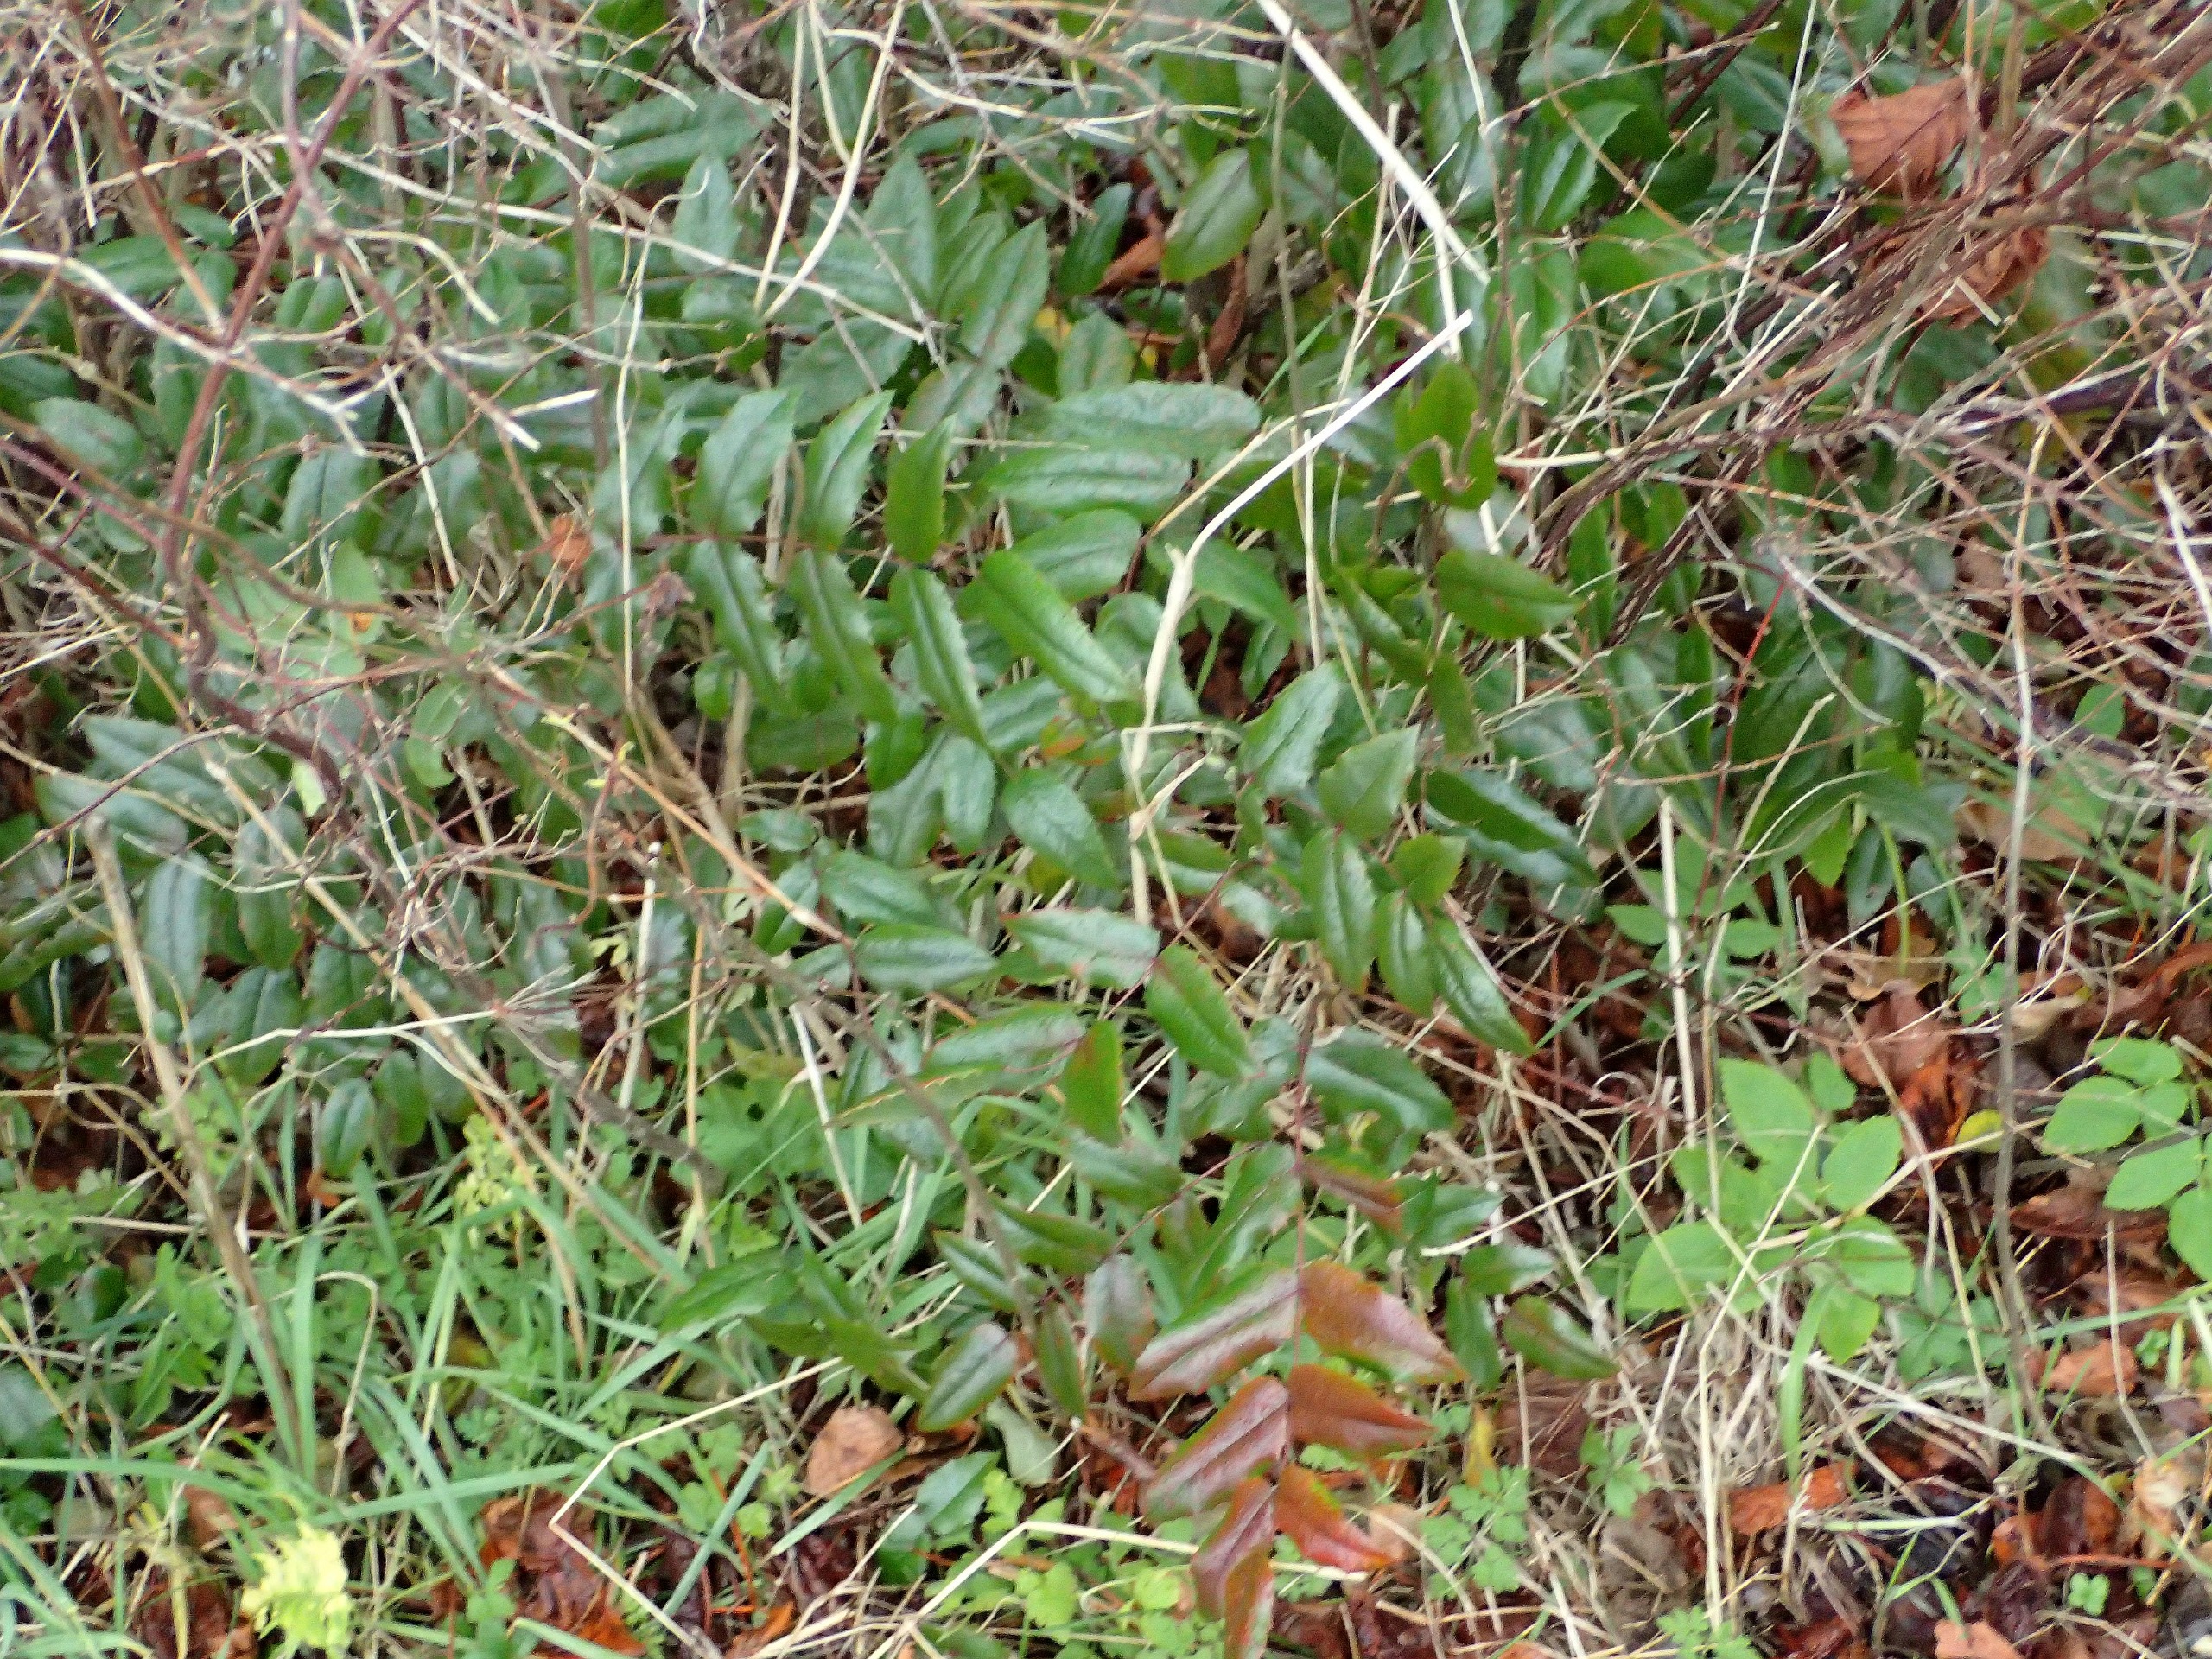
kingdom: Plantae
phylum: Tracheophyta
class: Magnoliopsida
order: Ranunculales
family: Berberidaceae
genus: Mahonia
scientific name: Mahonia aquifolium
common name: Almindelig mahonie
